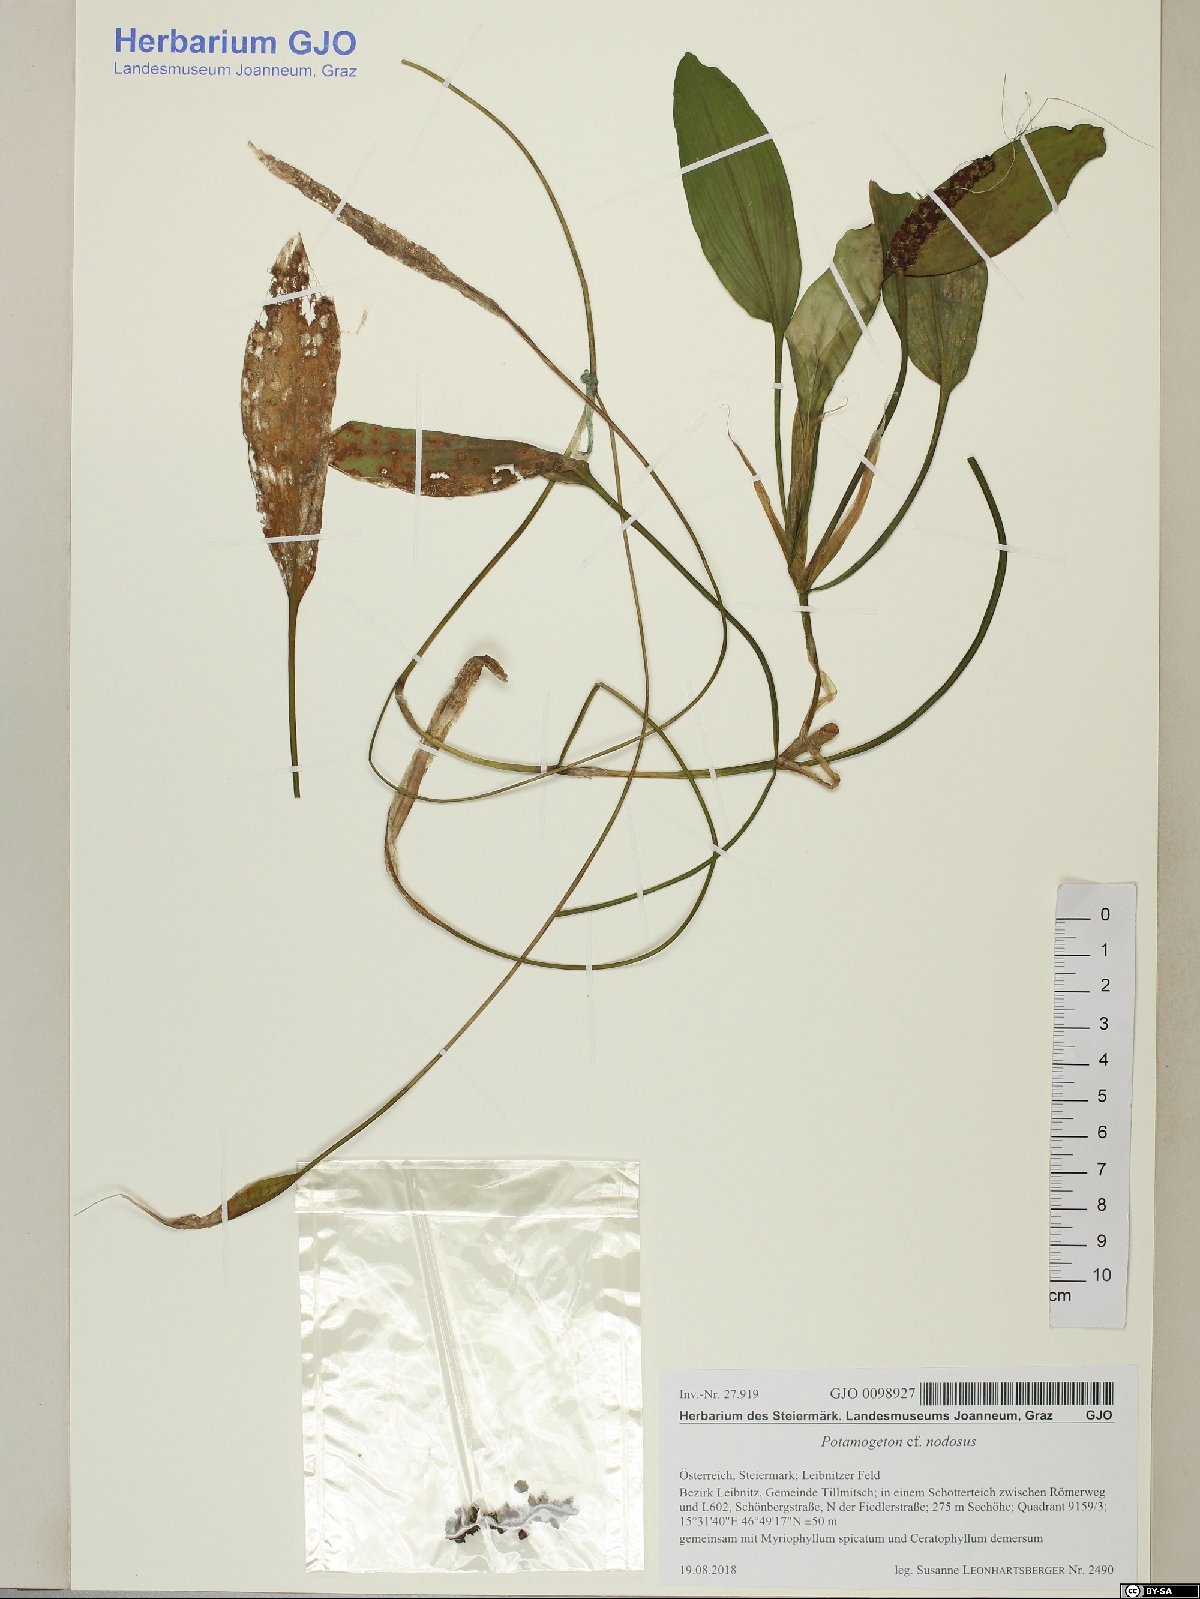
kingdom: Plantae
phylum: Tracheophyta
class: Liliopsida
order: Alismatales
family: Potamogetonaceae
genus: Potamogeton
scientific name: Potamogeton nodosus
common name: Loddon pondweed
